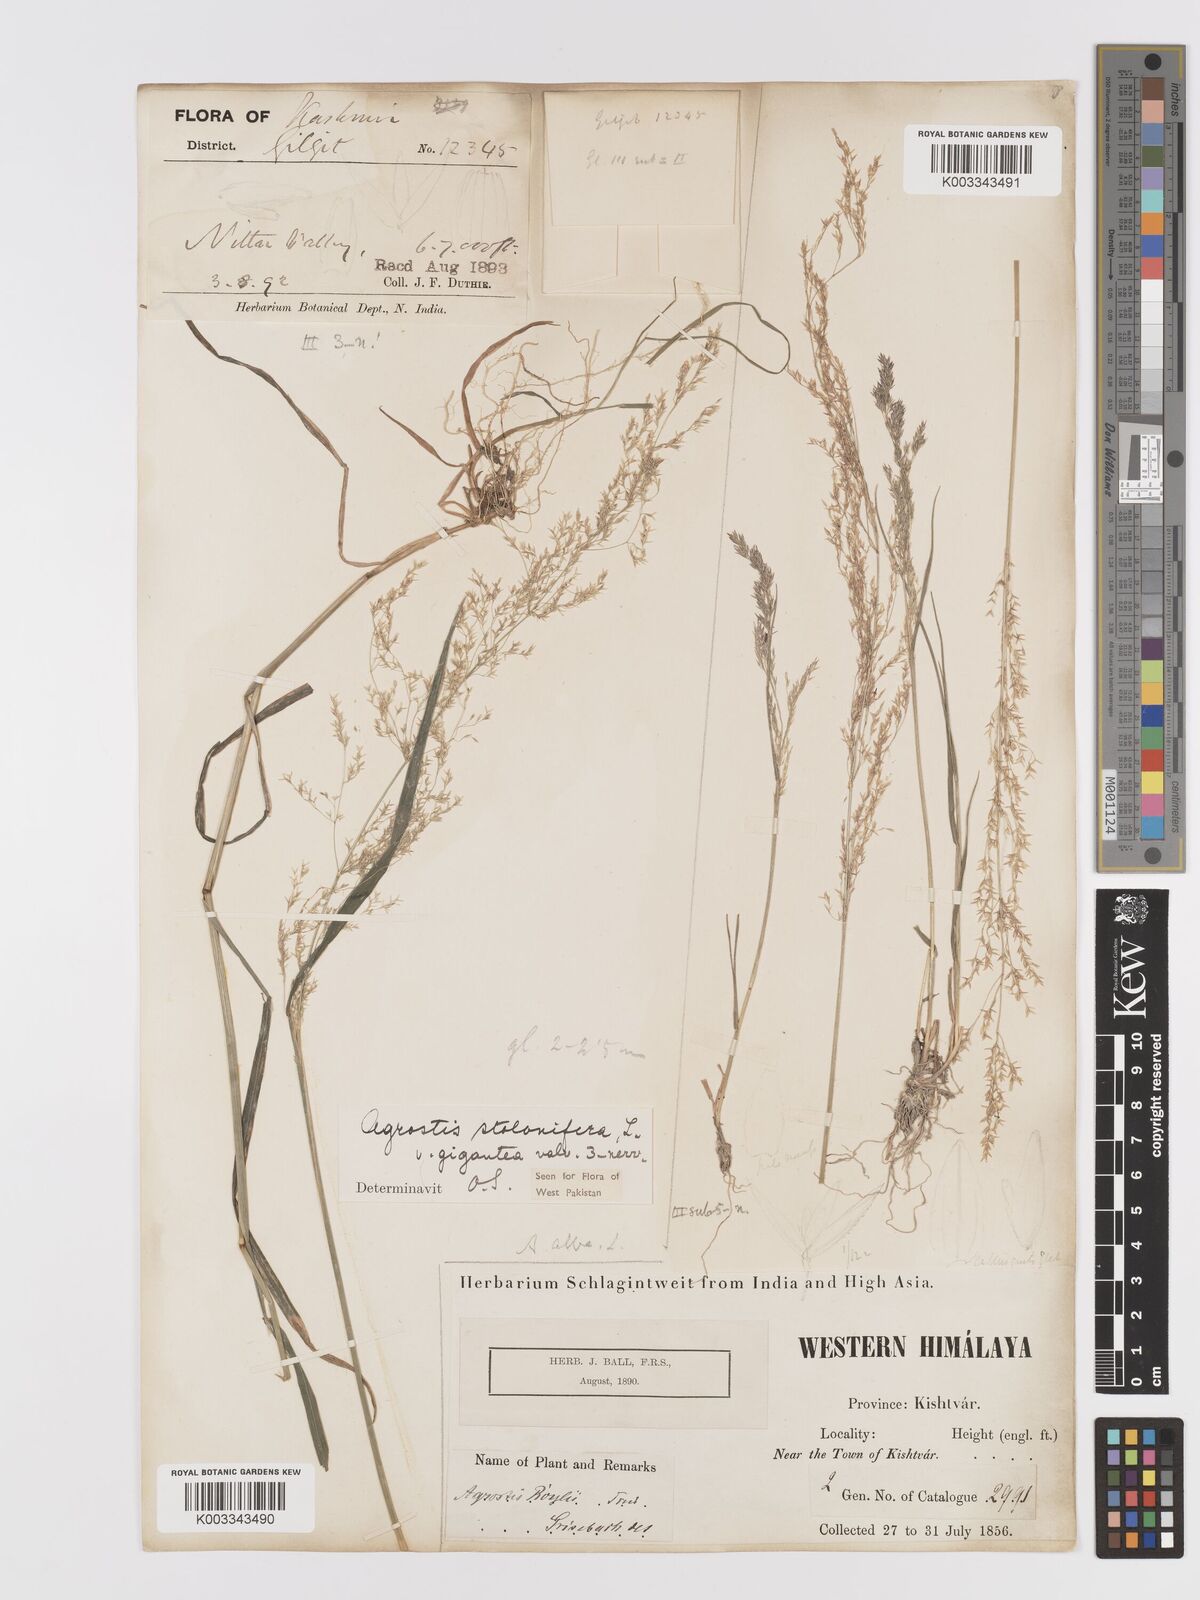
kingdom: Plantae
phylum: Tracheophyta
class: Liliopsida
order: Poales
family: Poaceae
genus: Agrostis
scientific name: Agrostis gigantea
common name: Black bent
